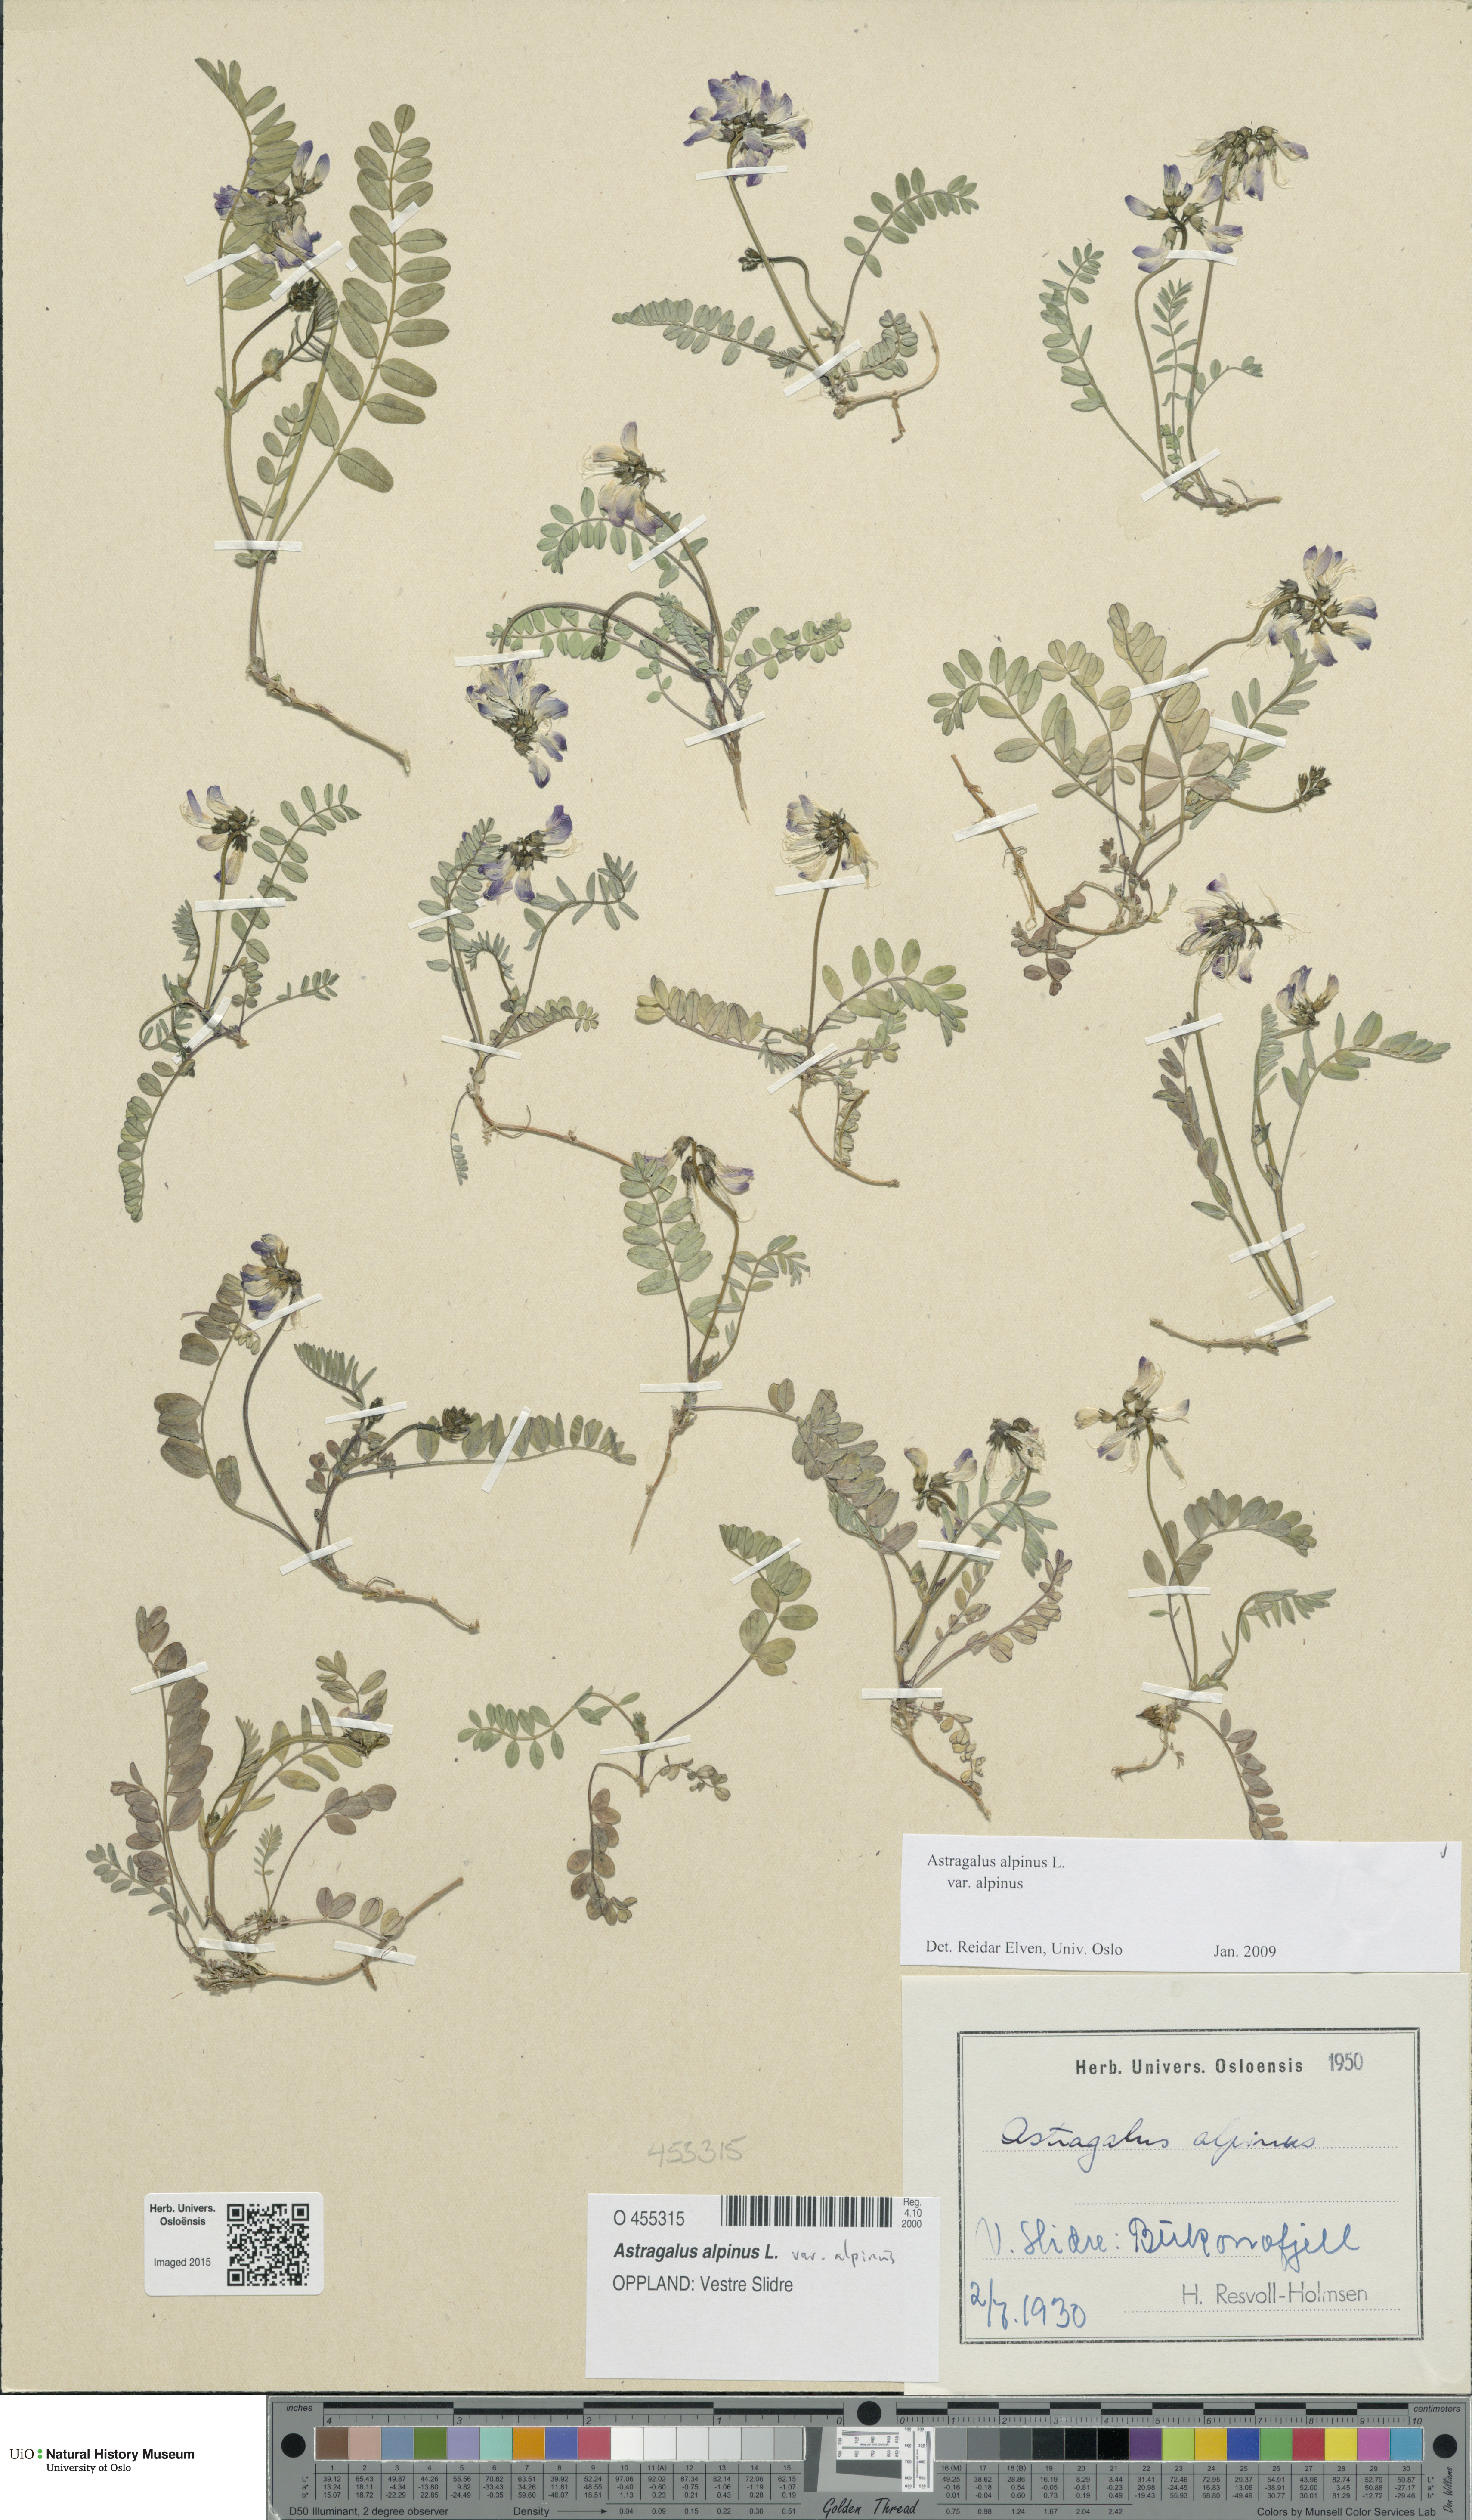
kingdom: Plantae
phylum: Tracheophyta
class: Magnoliopsida
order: Fabales
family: Fabaceae
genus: Astragalus
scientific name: Astragalus alpinus
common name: Alpine milk-vetch
